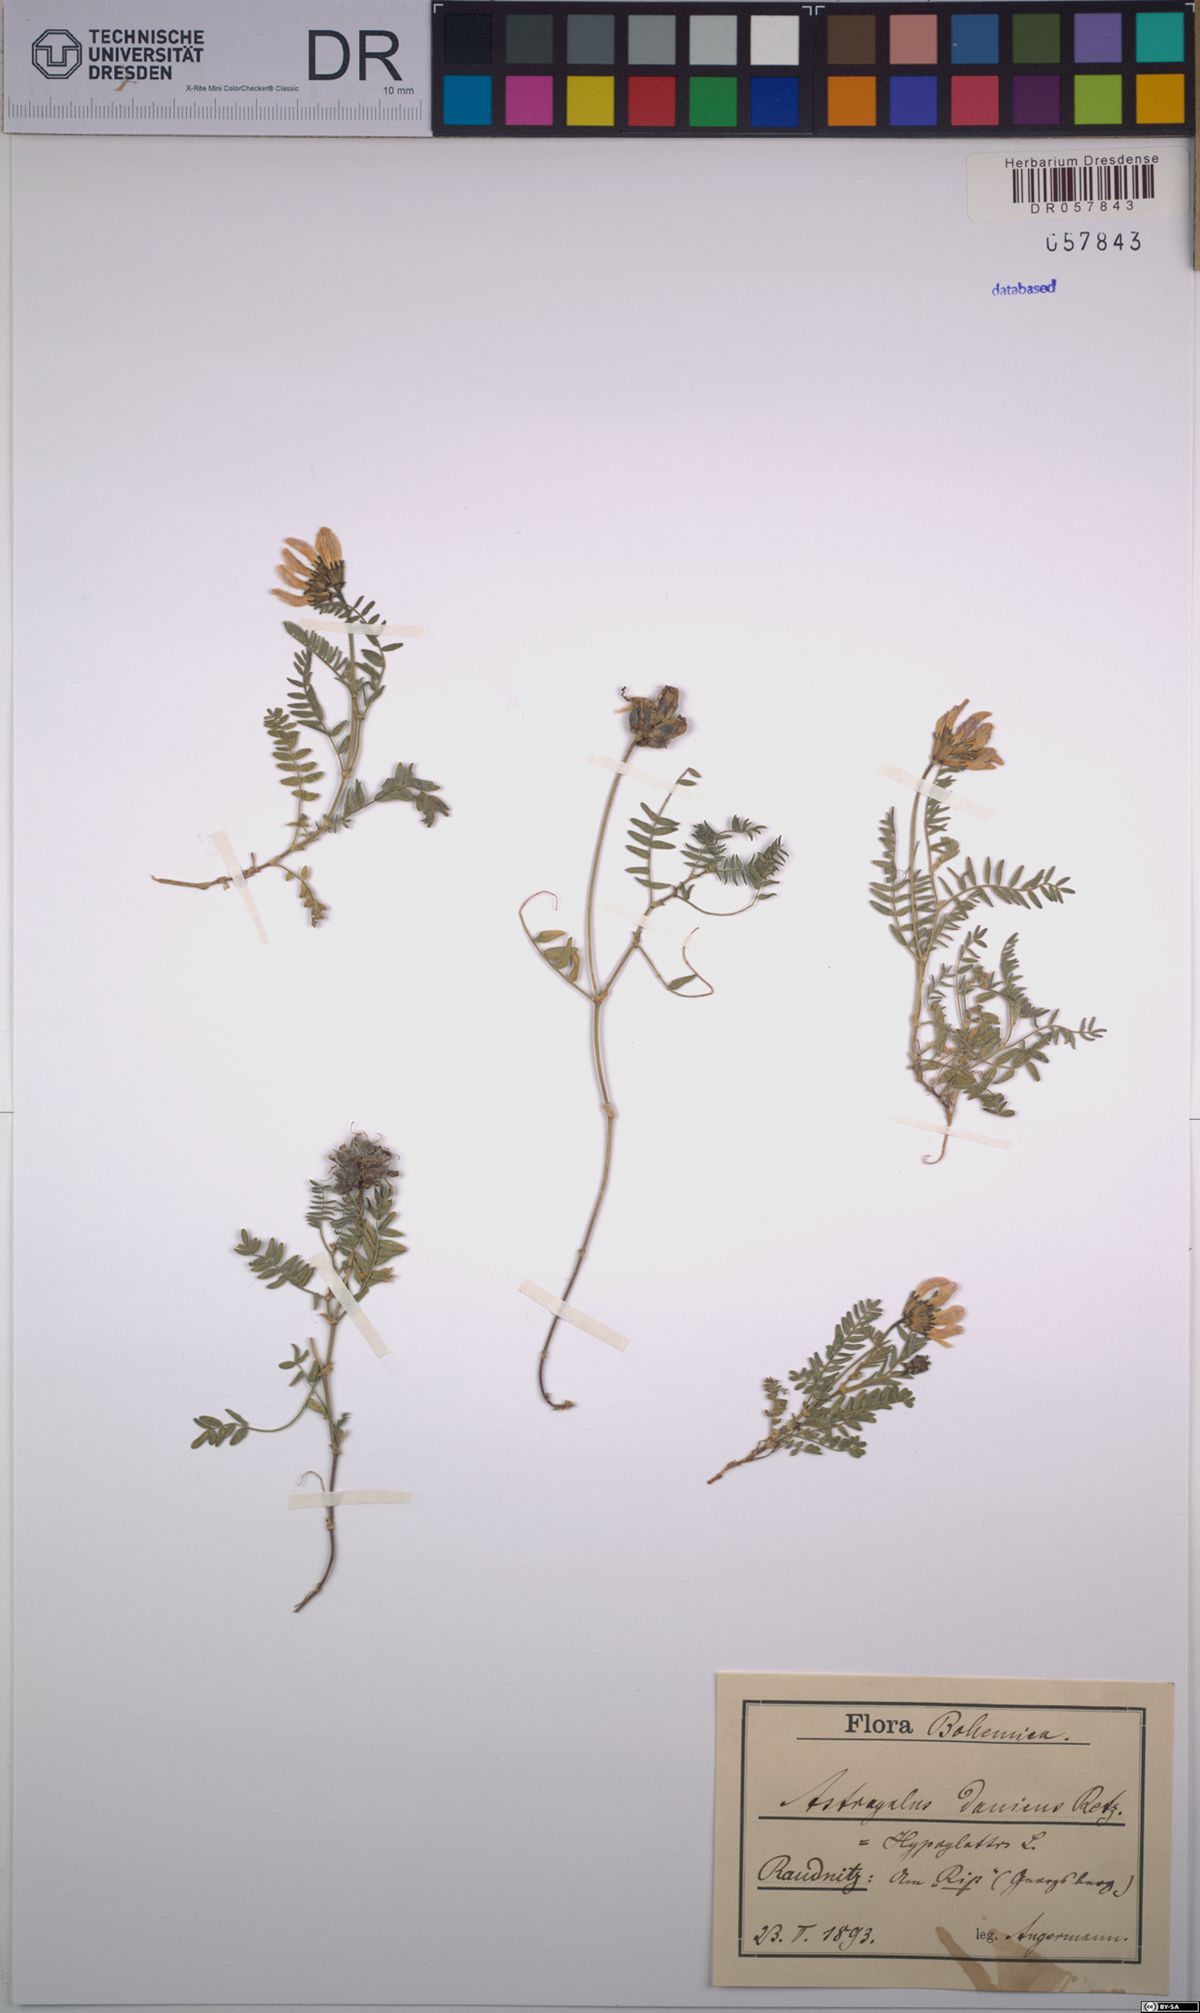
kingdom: Plantae
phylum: Tracheophyta
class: Magnoliopsida
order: Fabales
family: Fabaceae
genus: Astragalus
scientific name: Astragalus danicus
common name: Purple milk-vetch
